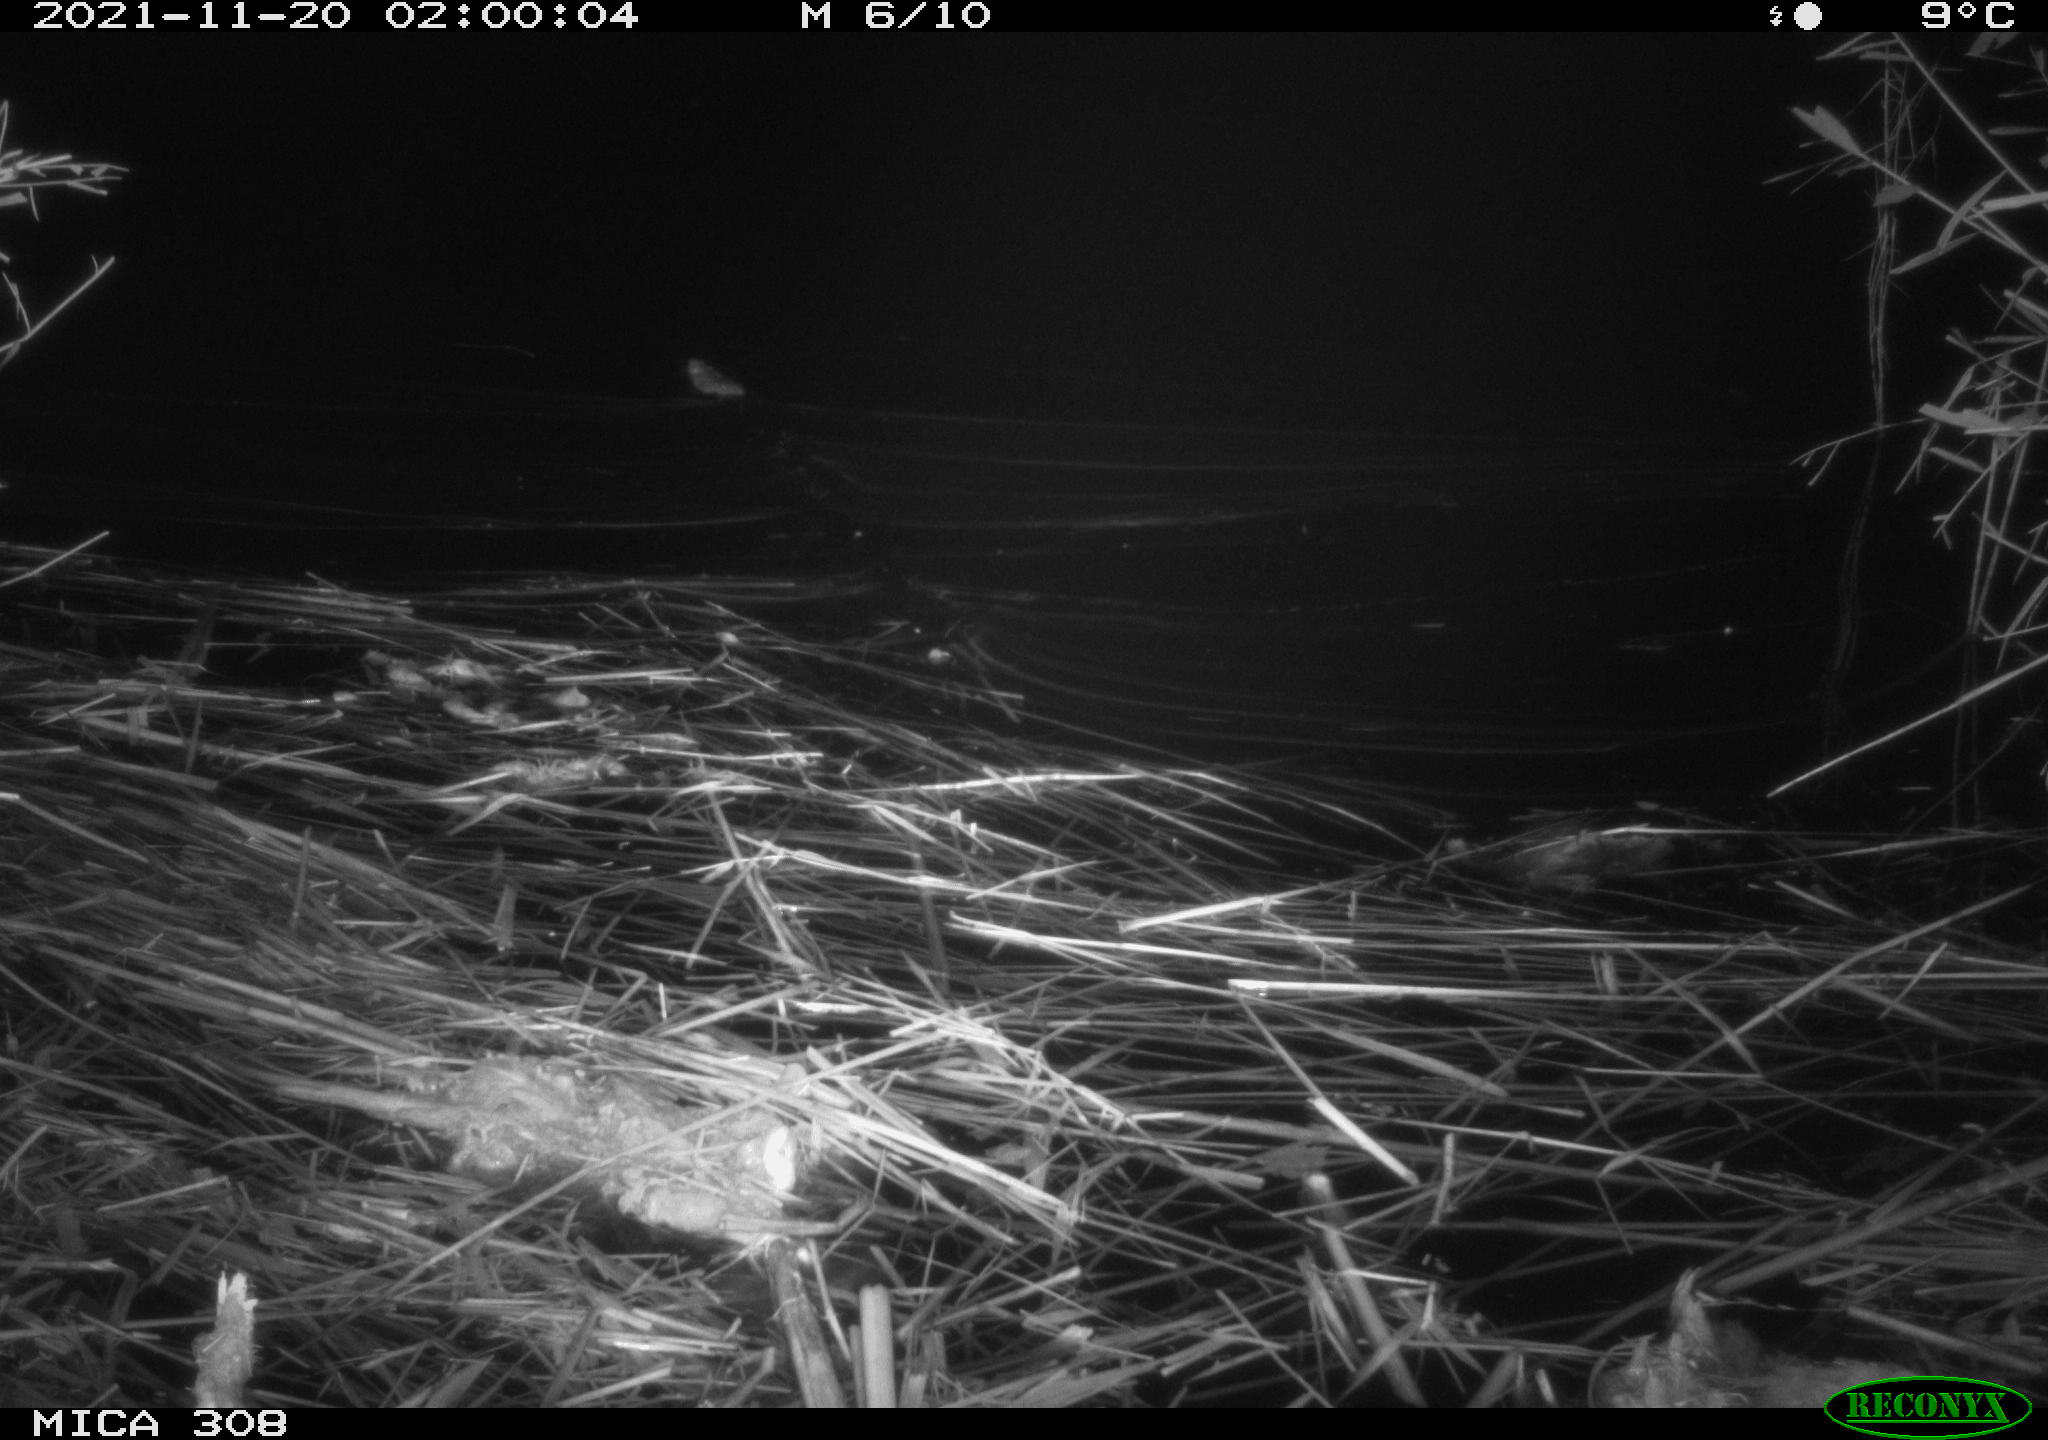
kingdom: Animalia
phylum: Chordata
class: Mammalia
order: Rodentia
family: Muridae
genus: Rattus
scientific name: Rattus norvegicus
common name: Brown rat
